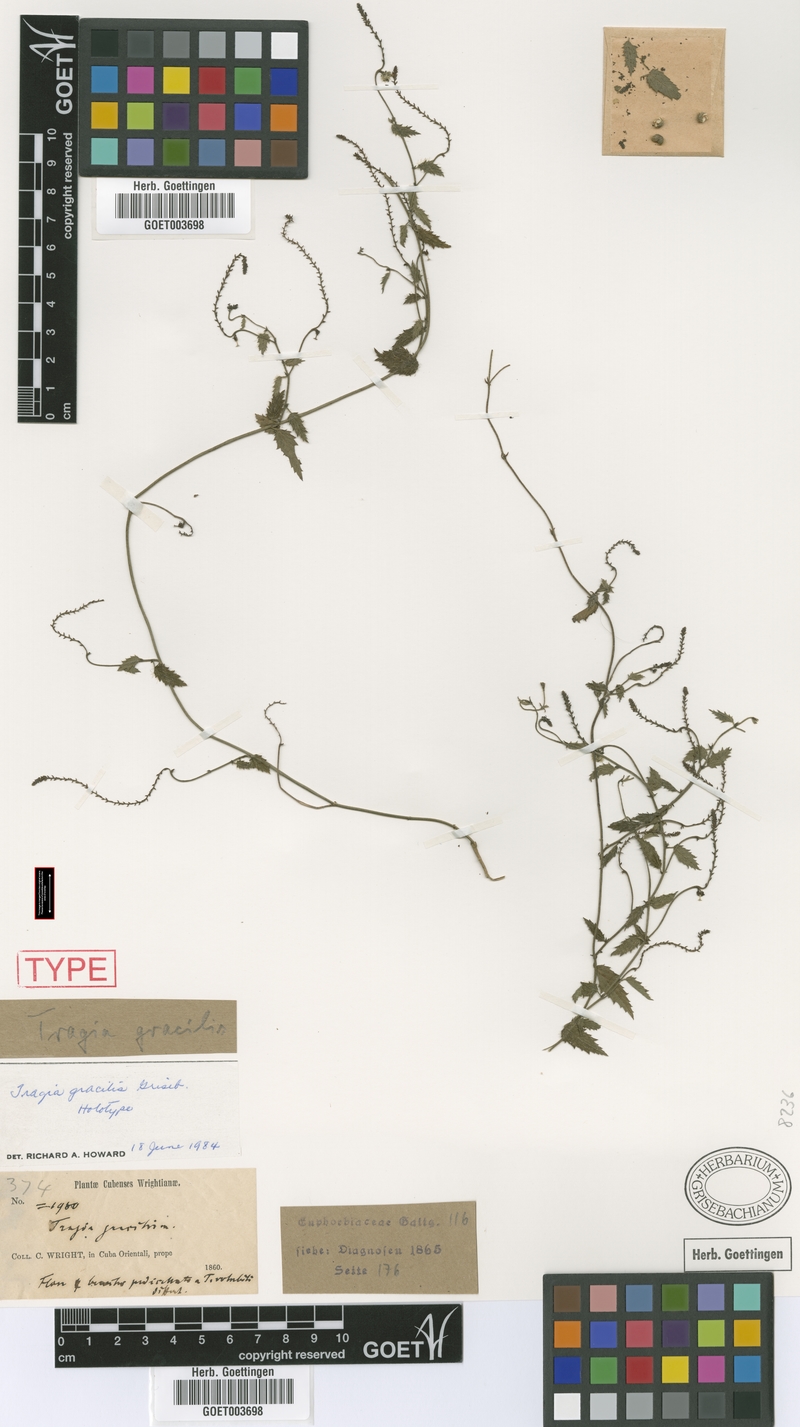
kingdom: Plantae
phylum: Tracheophyta
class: Magnoliopsida
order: Malpighiales
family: Euphorbiaceae
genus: Tragia
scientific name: Tragia gracilis
